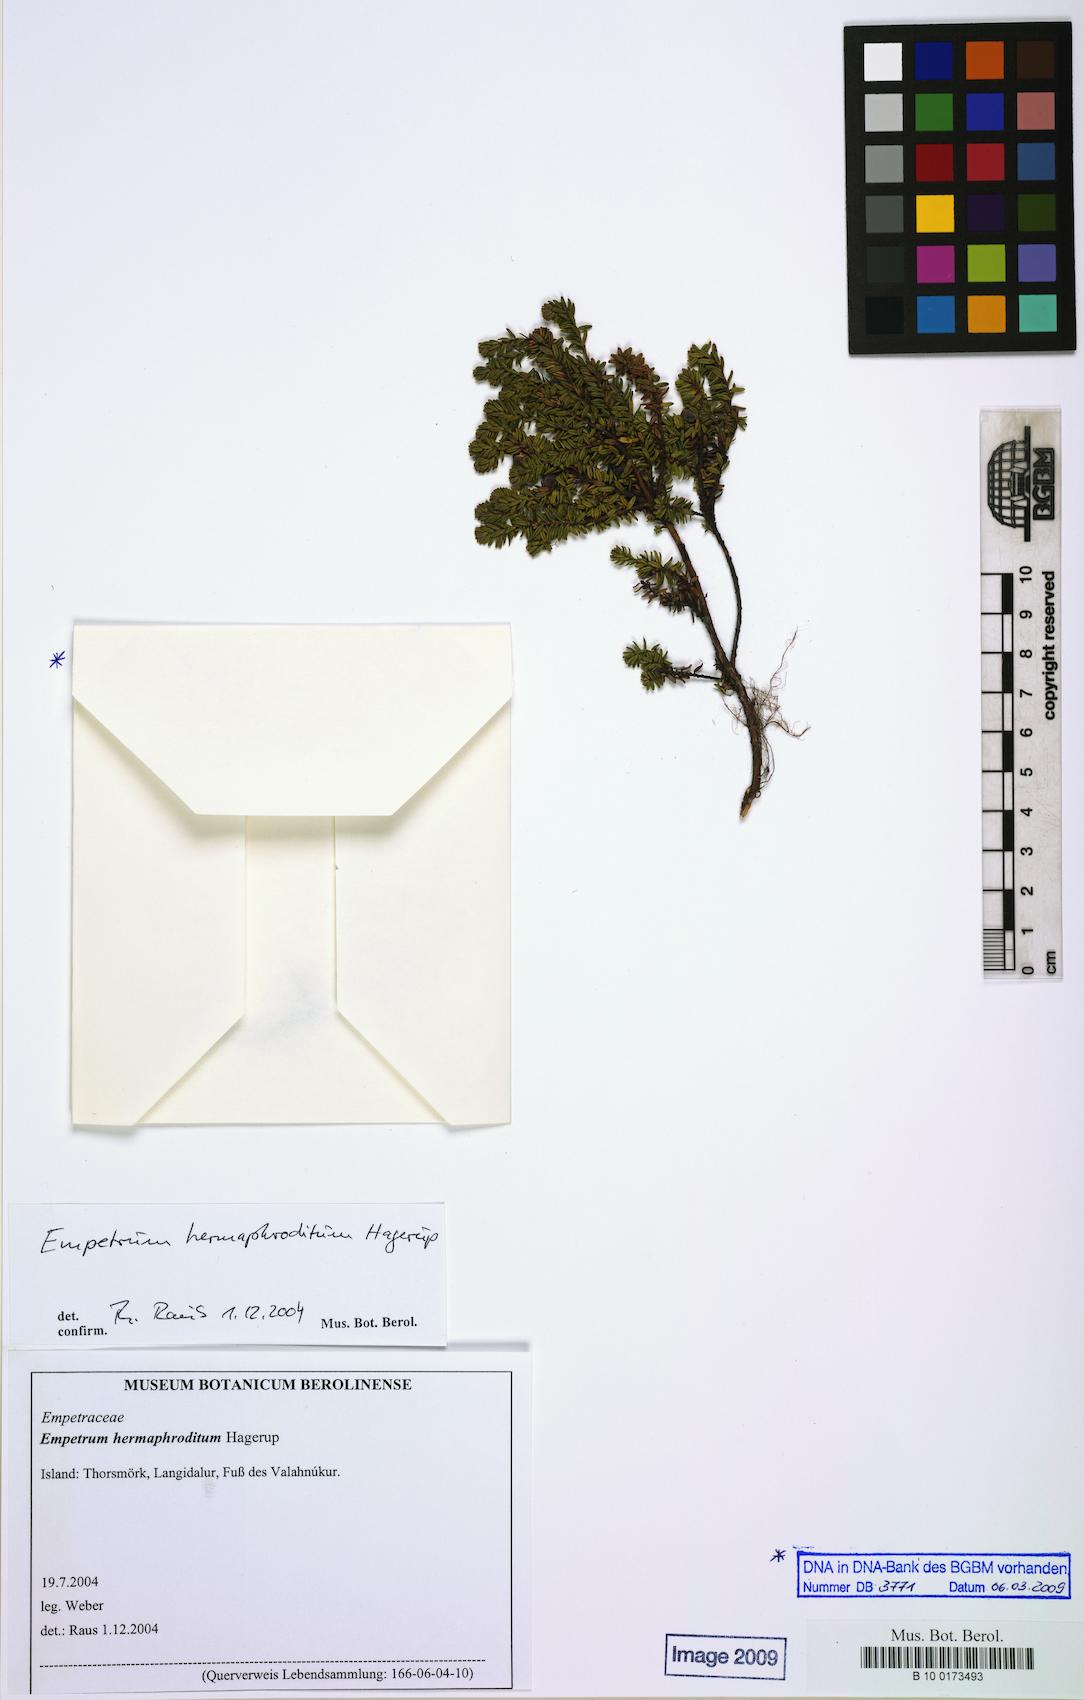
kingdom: Plantae
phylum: Tracheophyta
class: Magnoliopsida
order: Ericales
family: Ericaceae
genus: Empetrum
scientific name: Empetrum
